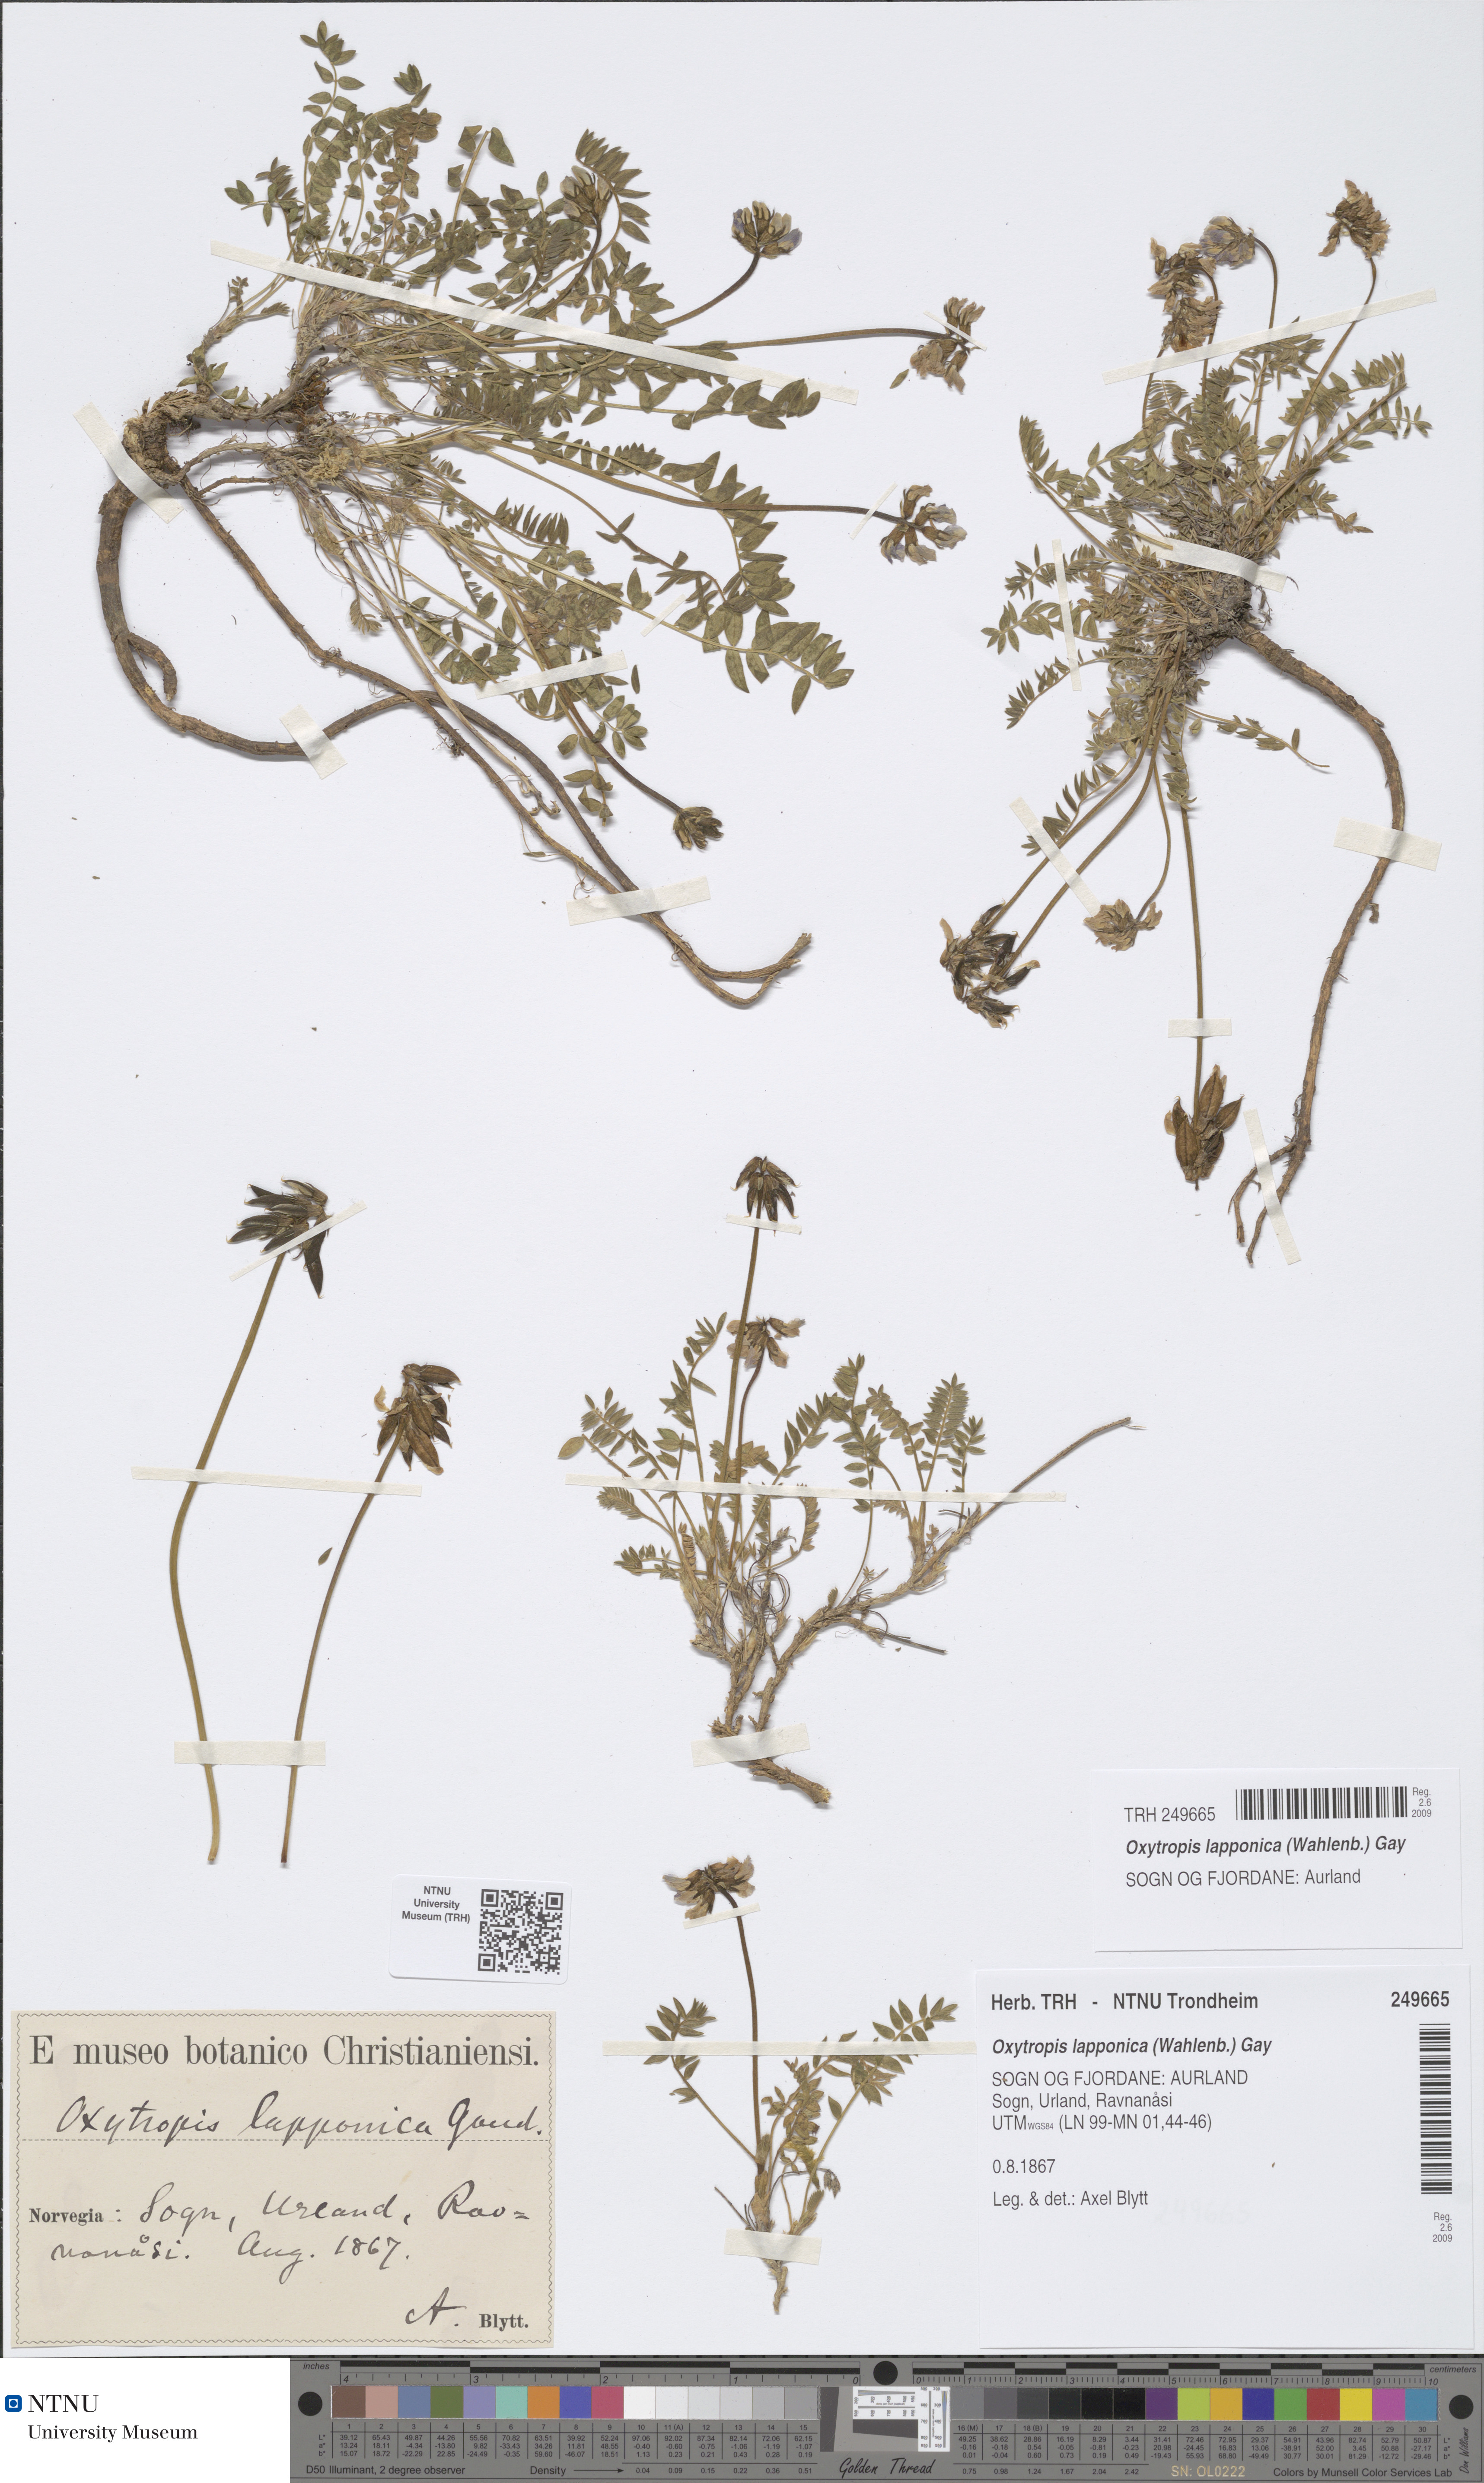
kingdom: Plantae
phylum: Tracheophyta
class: Magnoliopsida
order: Fabales
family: Fabaceae
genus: Oxytropis
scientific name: Oxytropis lapponica
